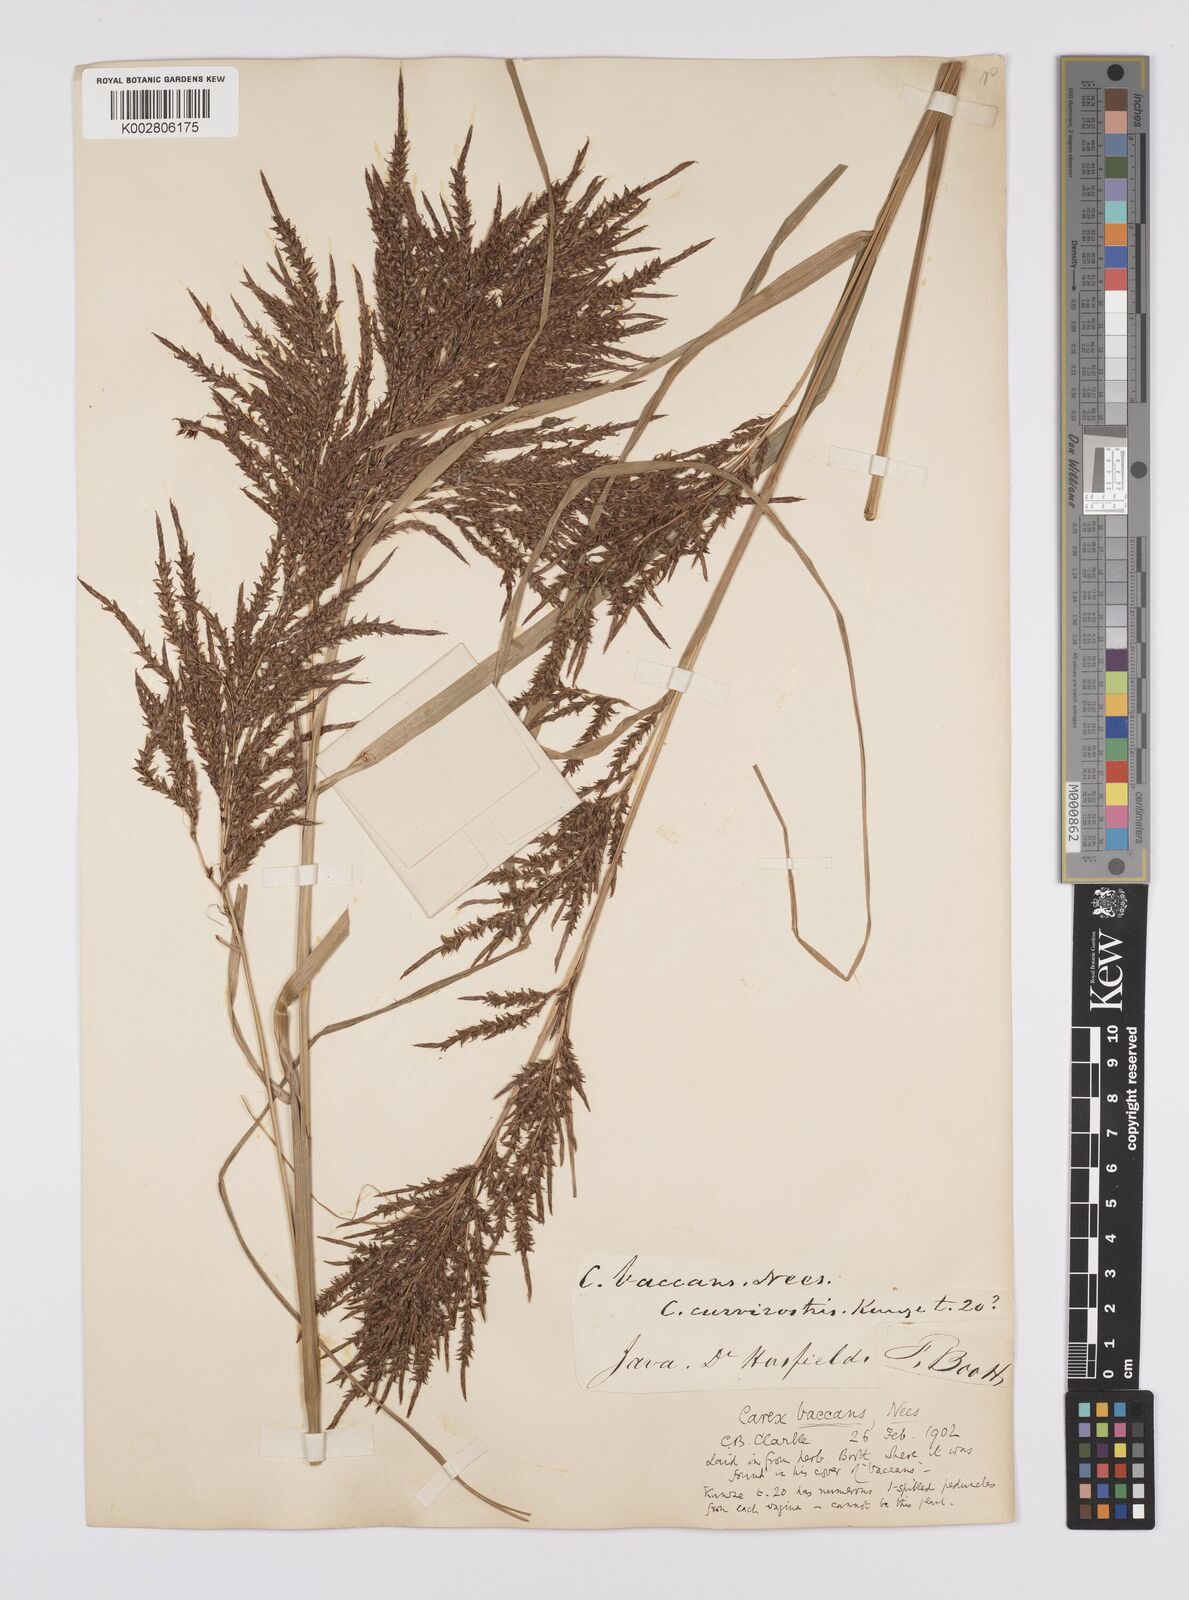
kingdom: Plantae
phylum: Tracheophyta
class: Liliopsida
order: Poales
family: Cyperaceae
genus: Carex
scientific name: Carex baccans
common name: Crimson seeded sedge
